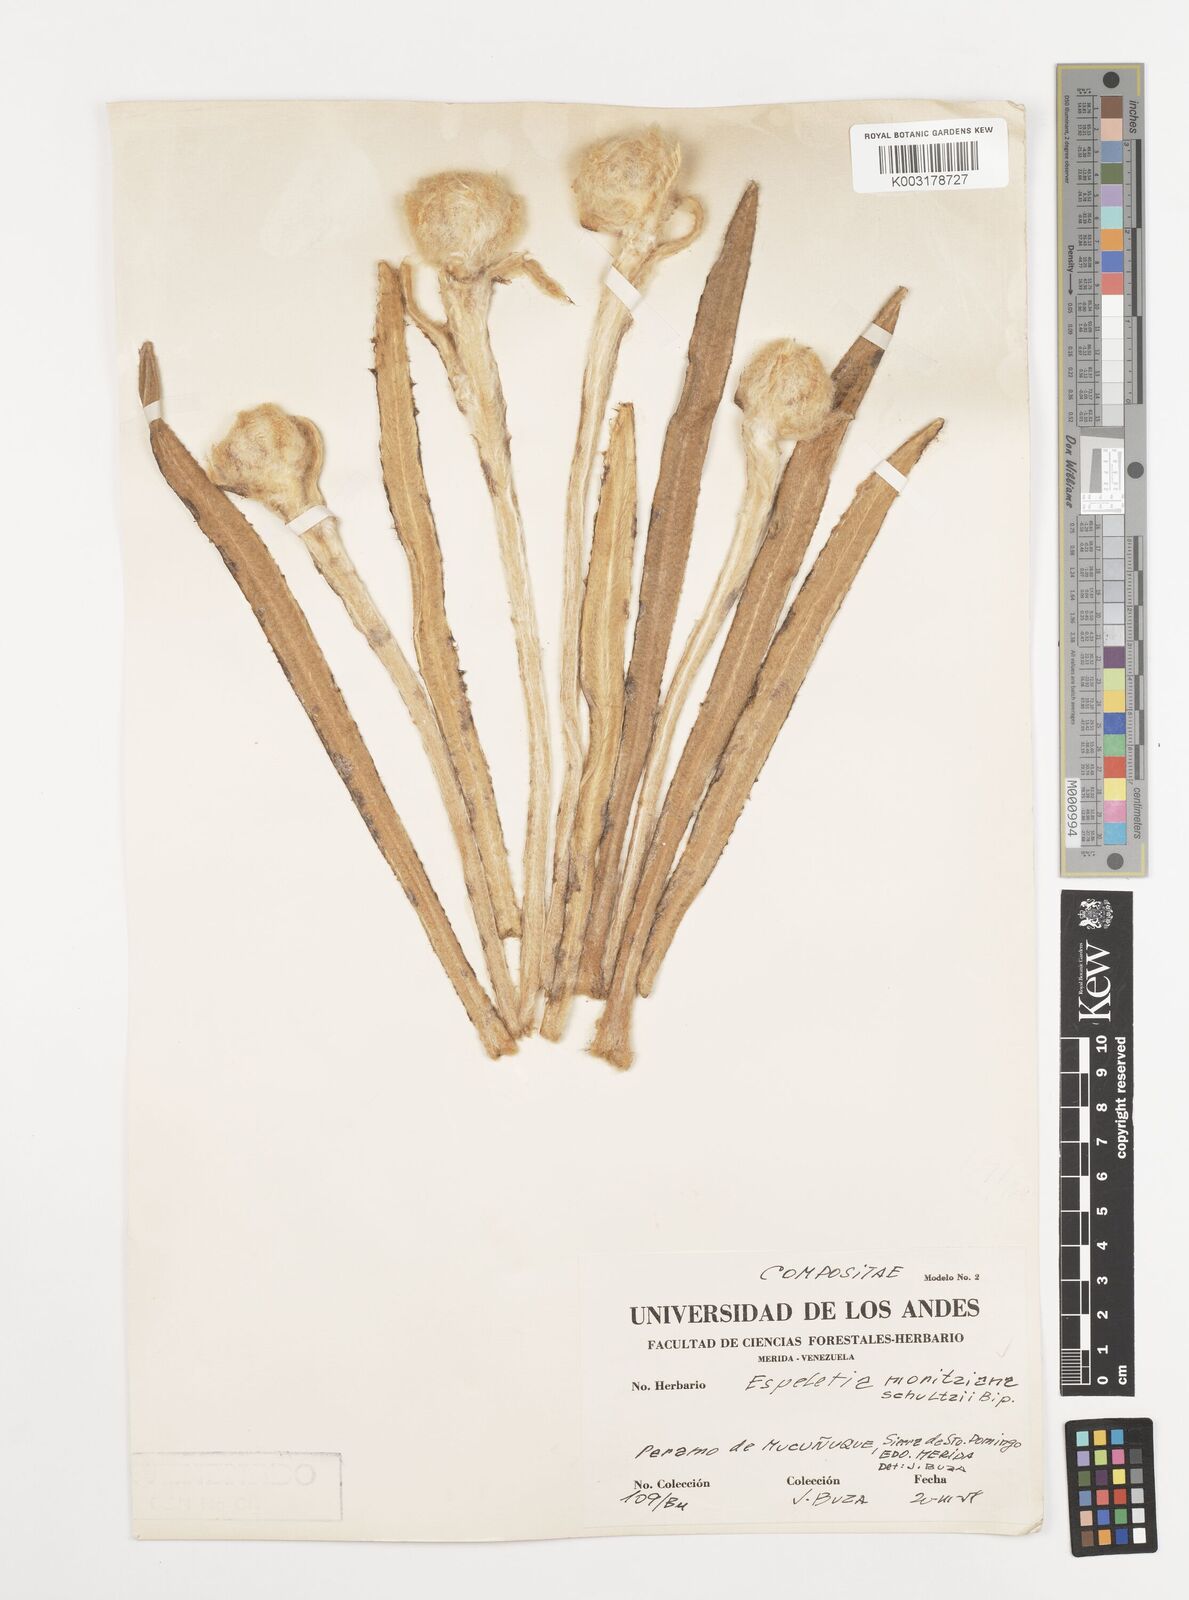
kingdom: Plantae
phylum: Tracheophyta
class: Magnoliopsida
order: Asterales
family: Asteraceae
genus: Espeletia
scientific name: Espeletia moritziana
